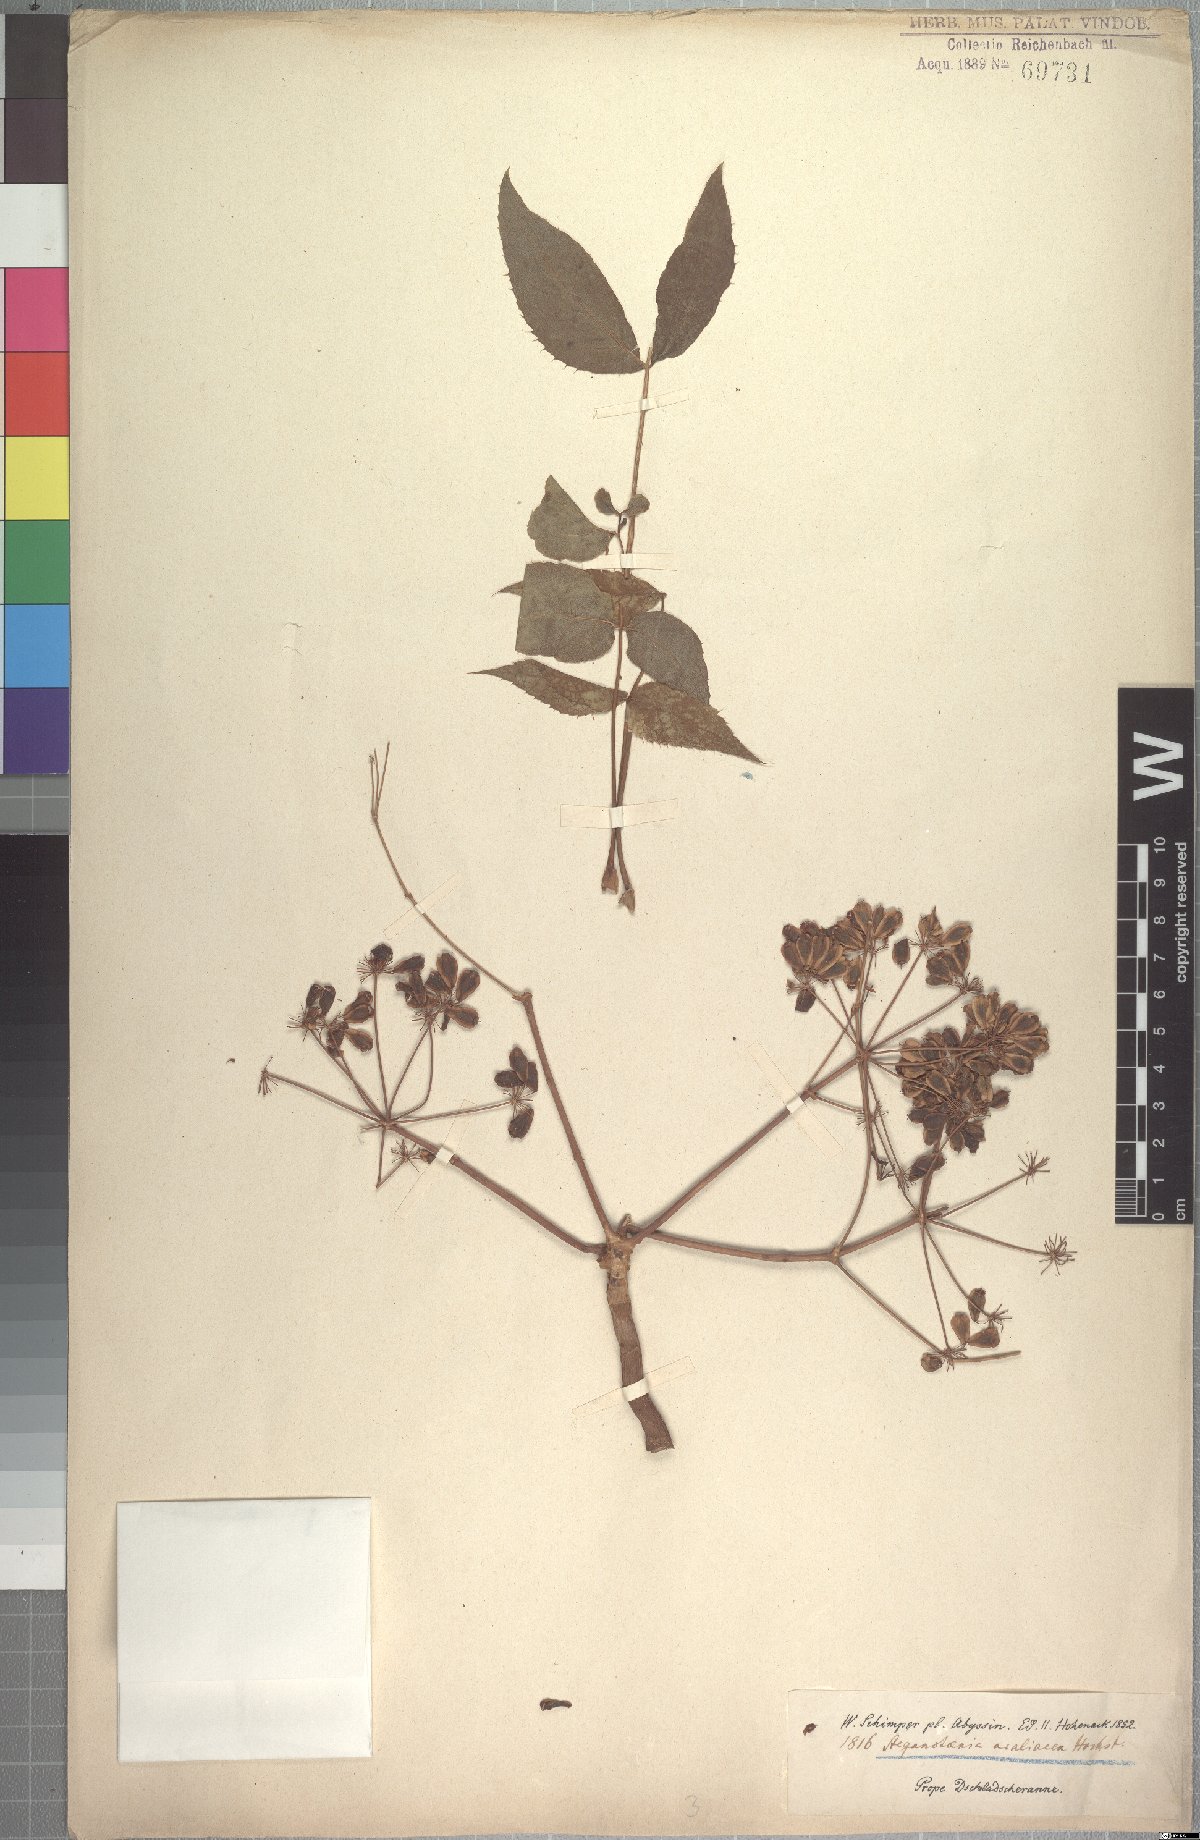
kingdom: Plantae
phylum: Tracheophyta
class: Magnoliopsida
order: Apiales
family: Apiaceae
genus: Steganotaenia
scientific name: Steganotaenia araliacea
